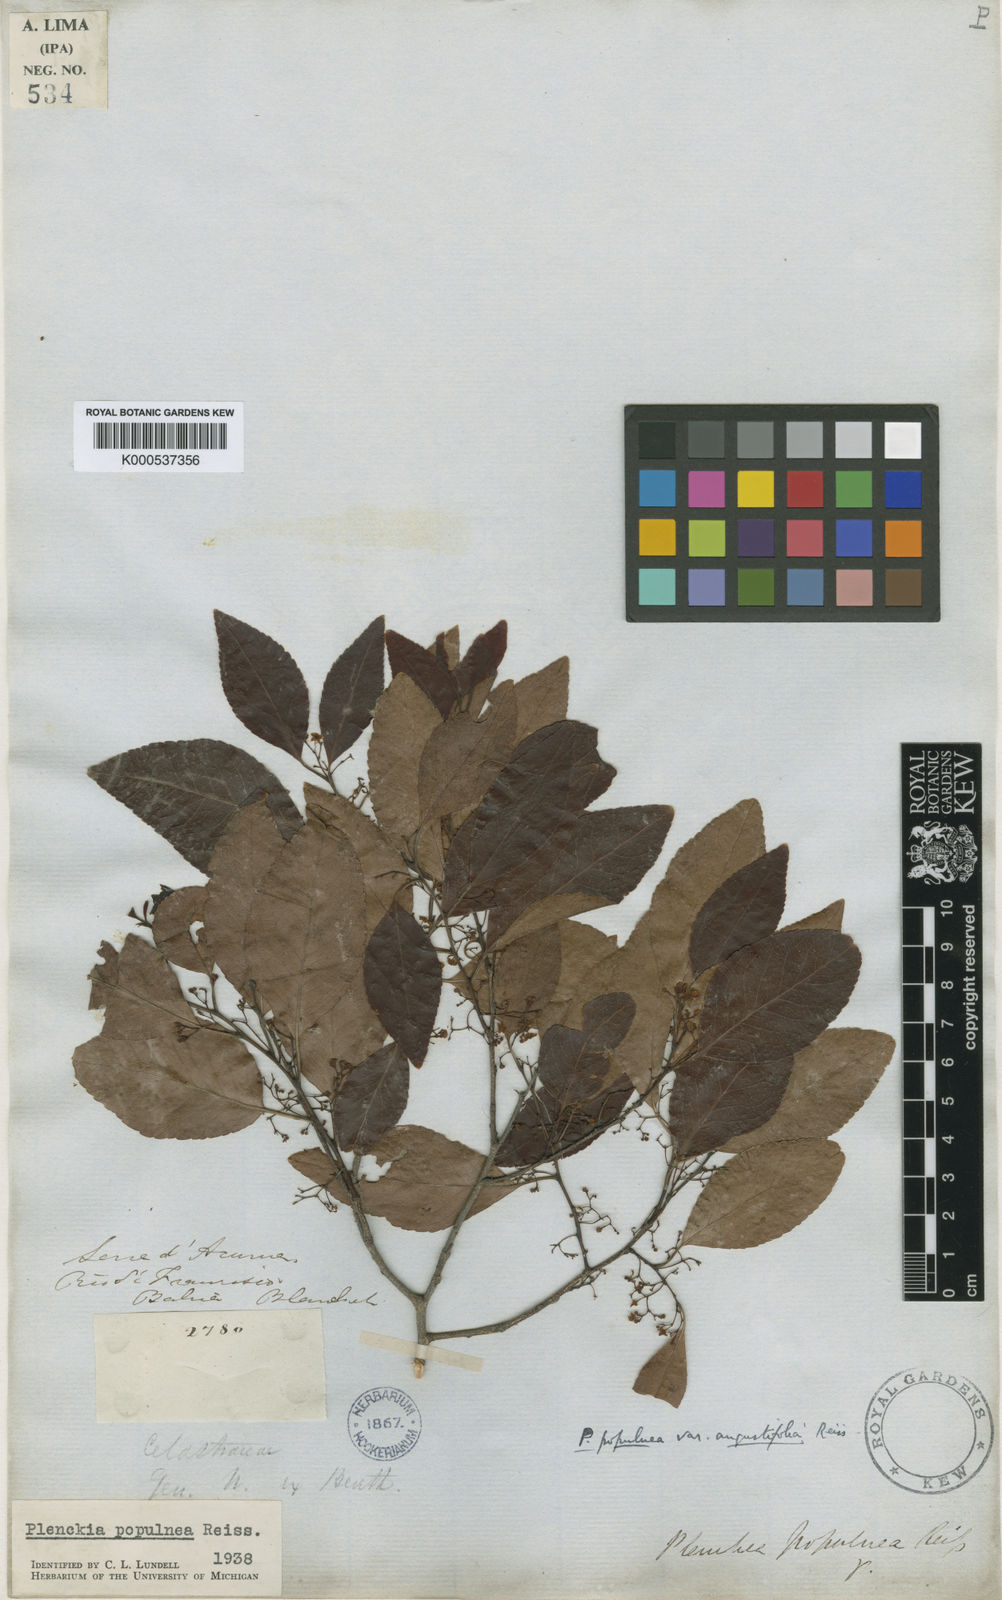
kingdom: Plantae
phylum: Tracheophyta
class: Magnoliopsida
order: Celastrales
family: Celastraceae
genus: Plenckia
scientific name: Plenckia populnea
